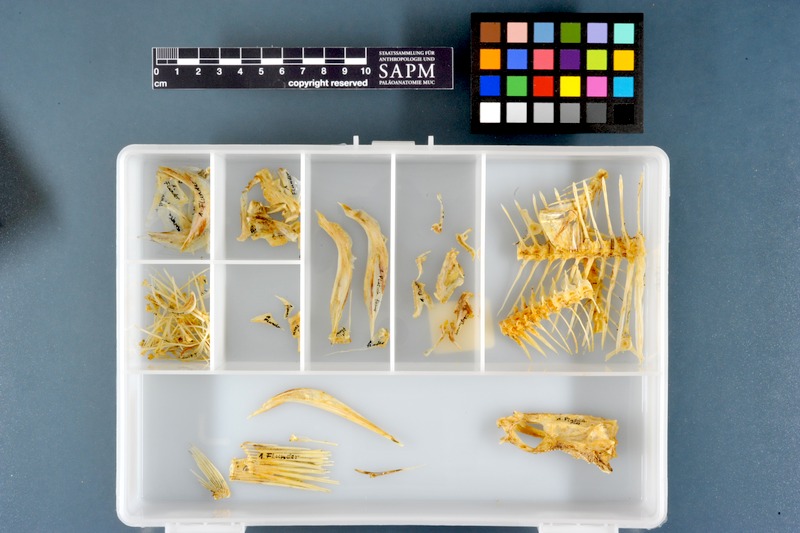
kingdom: Animalia
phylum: Chordata
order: Pleuronectiformes
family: Pleuronectidae
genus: Platichthys
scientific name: Platichthys flesus
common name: European flounder
